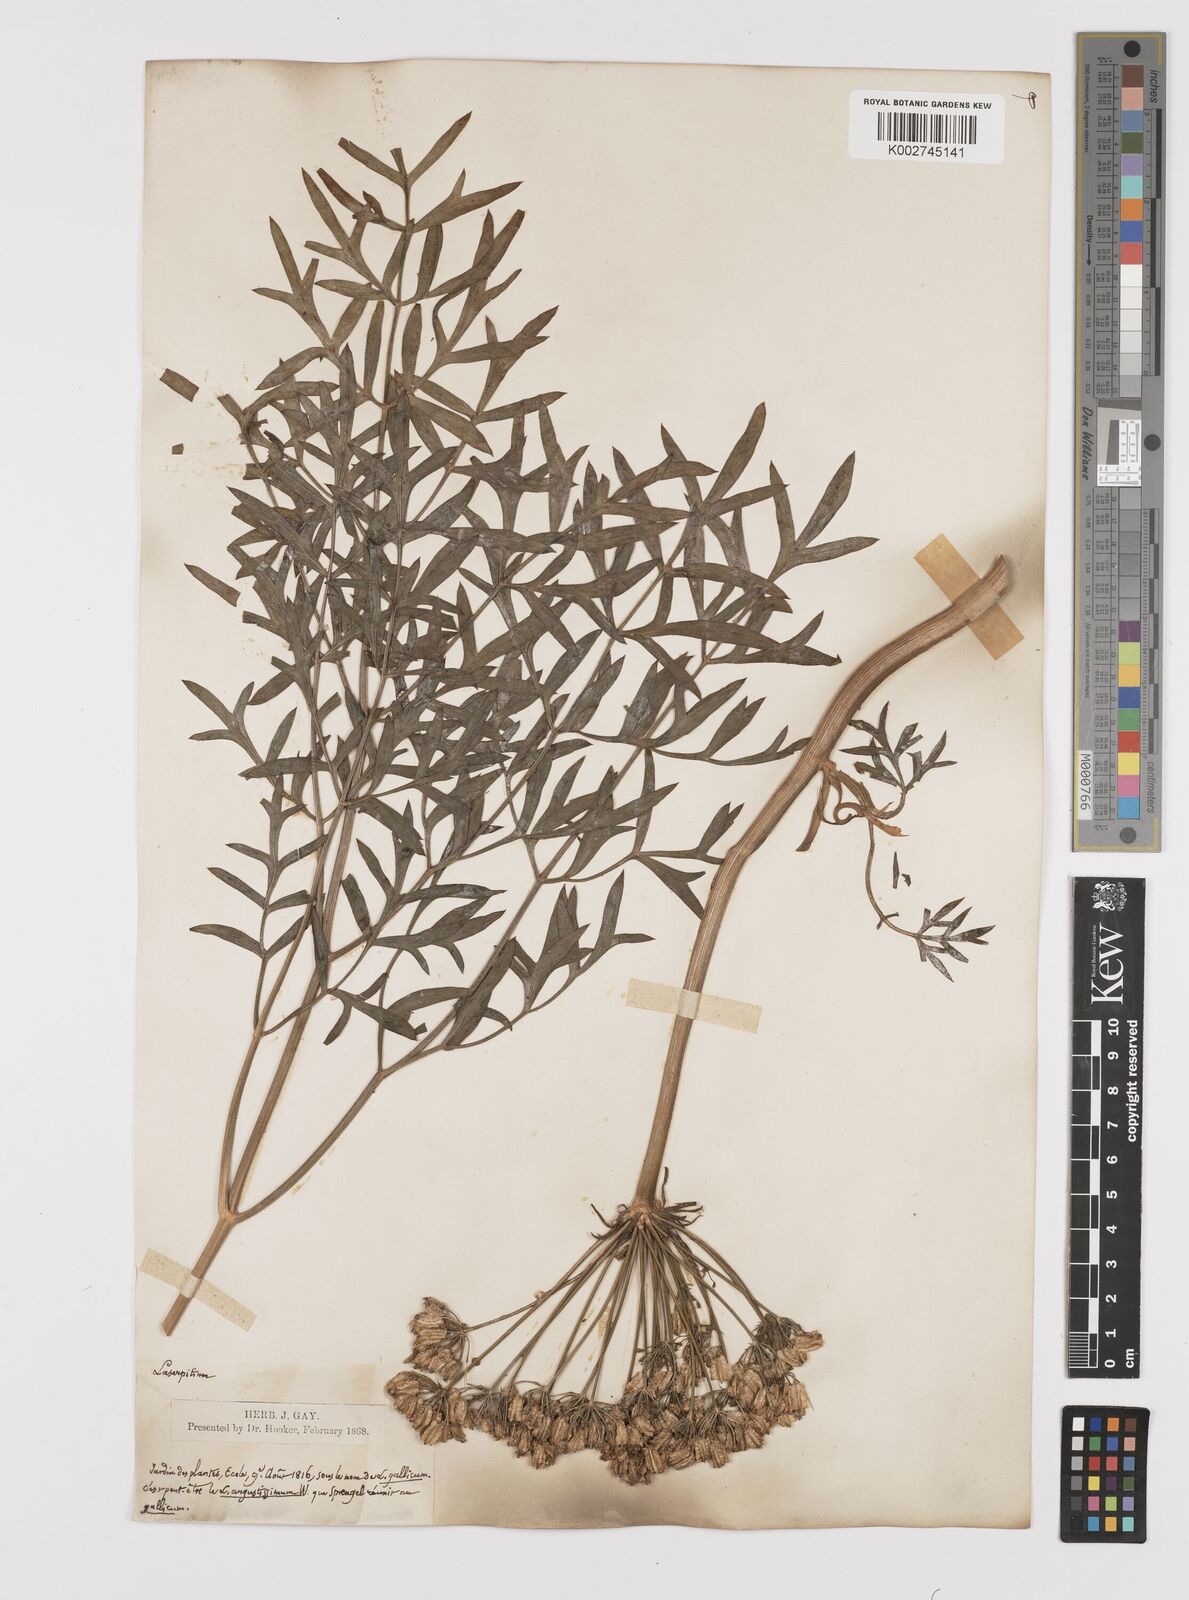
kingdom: Plantae
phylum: Tracheophyta
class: Magnoliopsida
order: Apiales
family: Apiaceae
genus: Laserpitium
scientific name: Laserpitium gallicum
